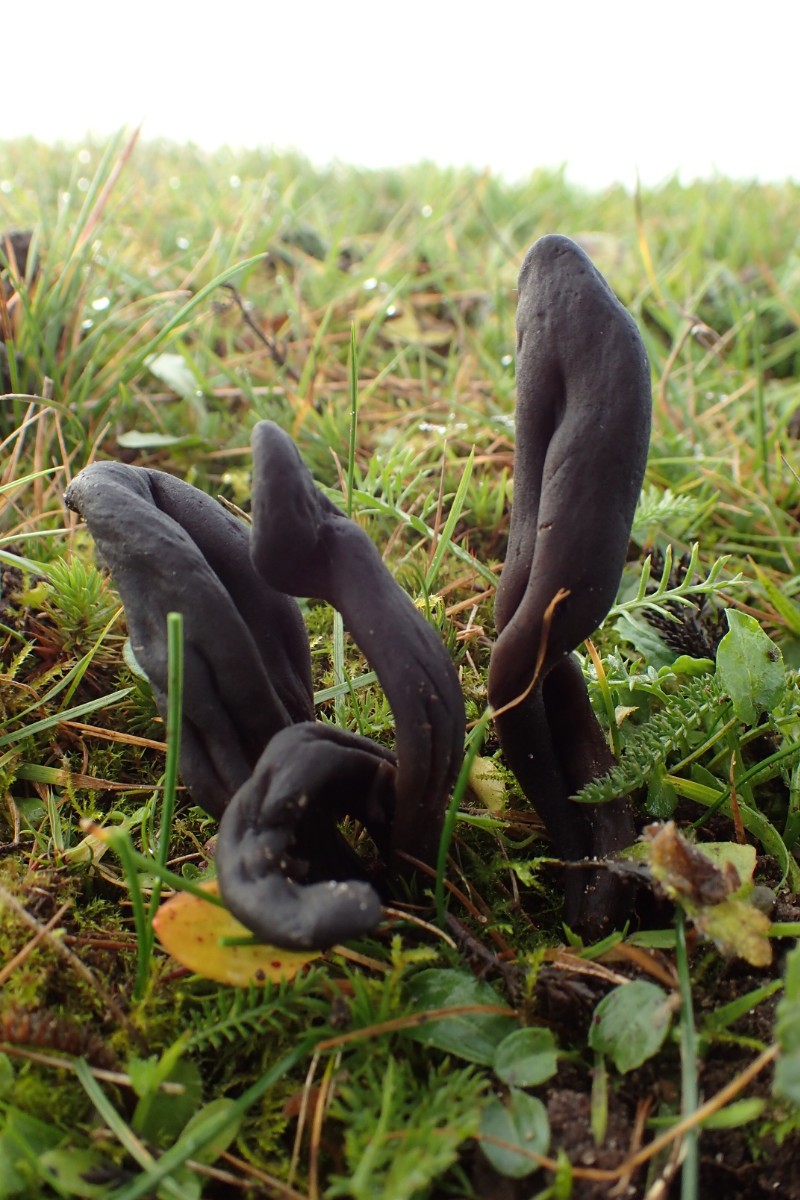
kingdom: Fungi
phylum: Ascomycota
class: Geoglossomycetes
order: Geoglossales
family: Geoglossaceae
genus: Geoglossum
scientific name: Geoglossum fallax
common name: småskællet jordtunge
